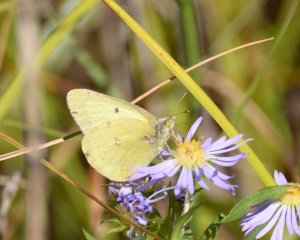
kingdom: Animalia
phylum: Arthropoda
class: Insecta
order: Lepidoptera
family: Pieridae
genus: Colias
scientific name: Colias philodice
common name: Clouded Sulphur
